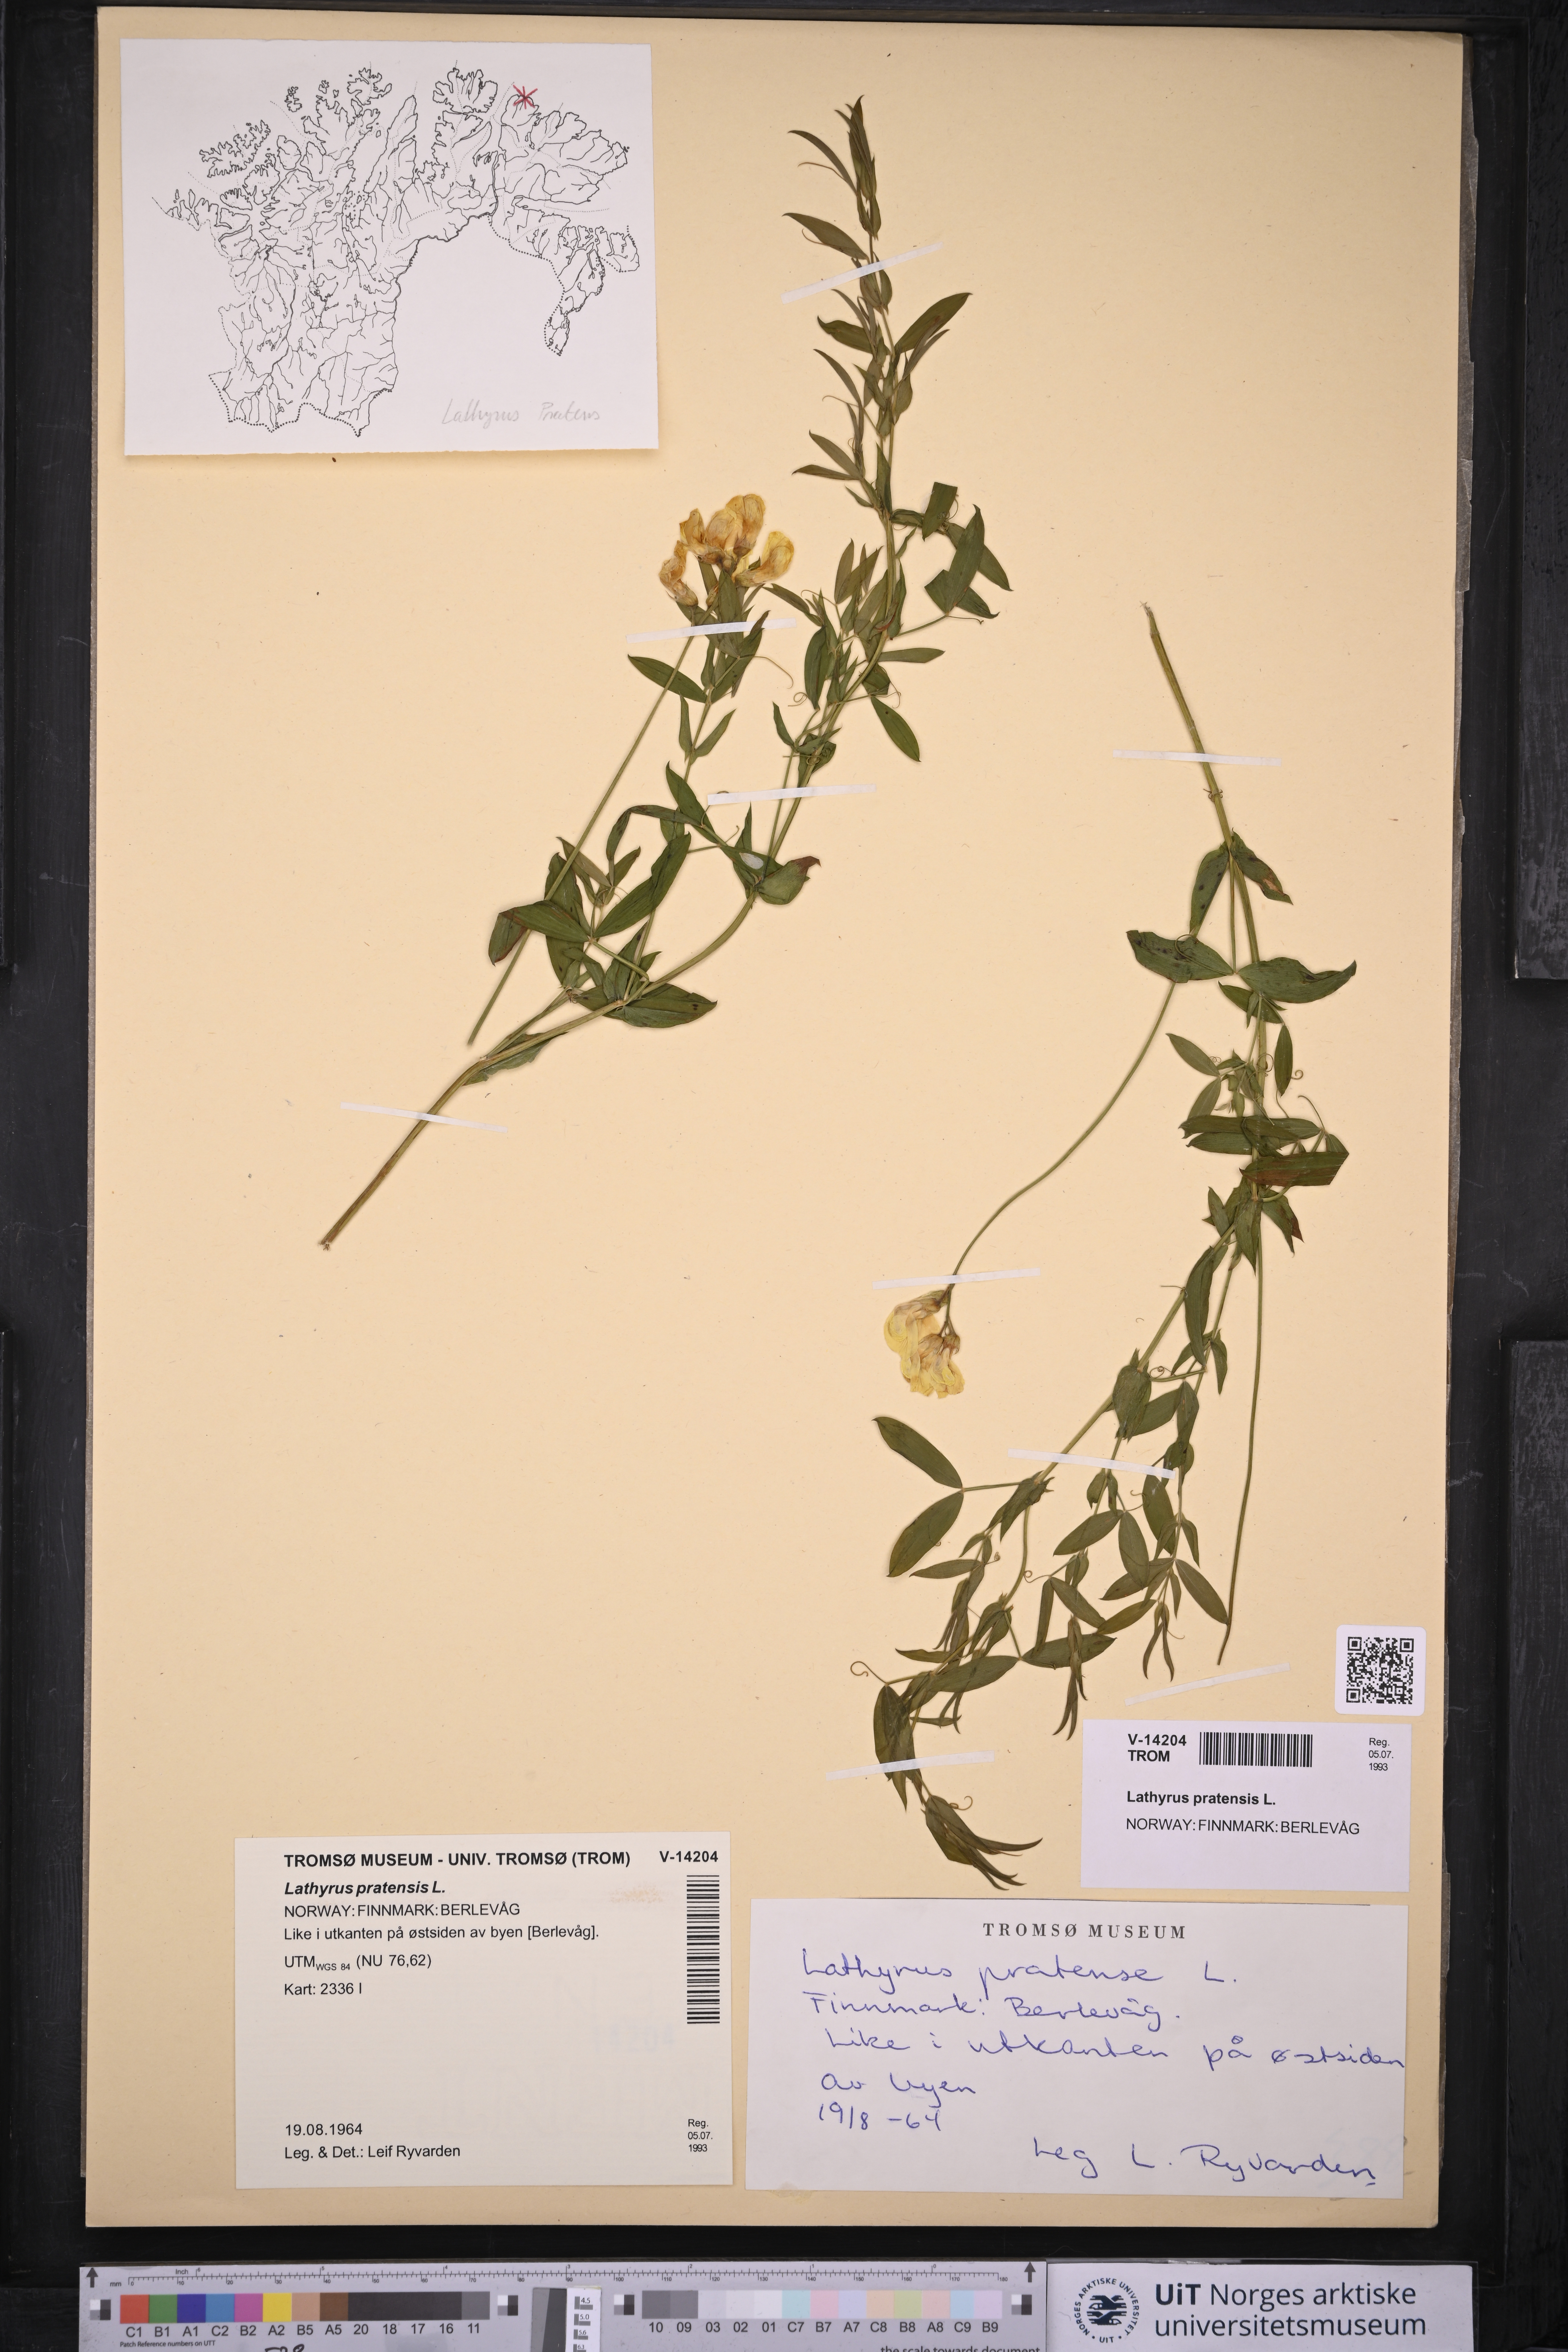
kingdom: Plantae
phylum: Tracheophyta
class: Magnoliopsida
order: Fabales
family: Fabaceae
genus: Lathyrus
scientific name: Lathyrus pratensis
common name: Meadow vetchling
